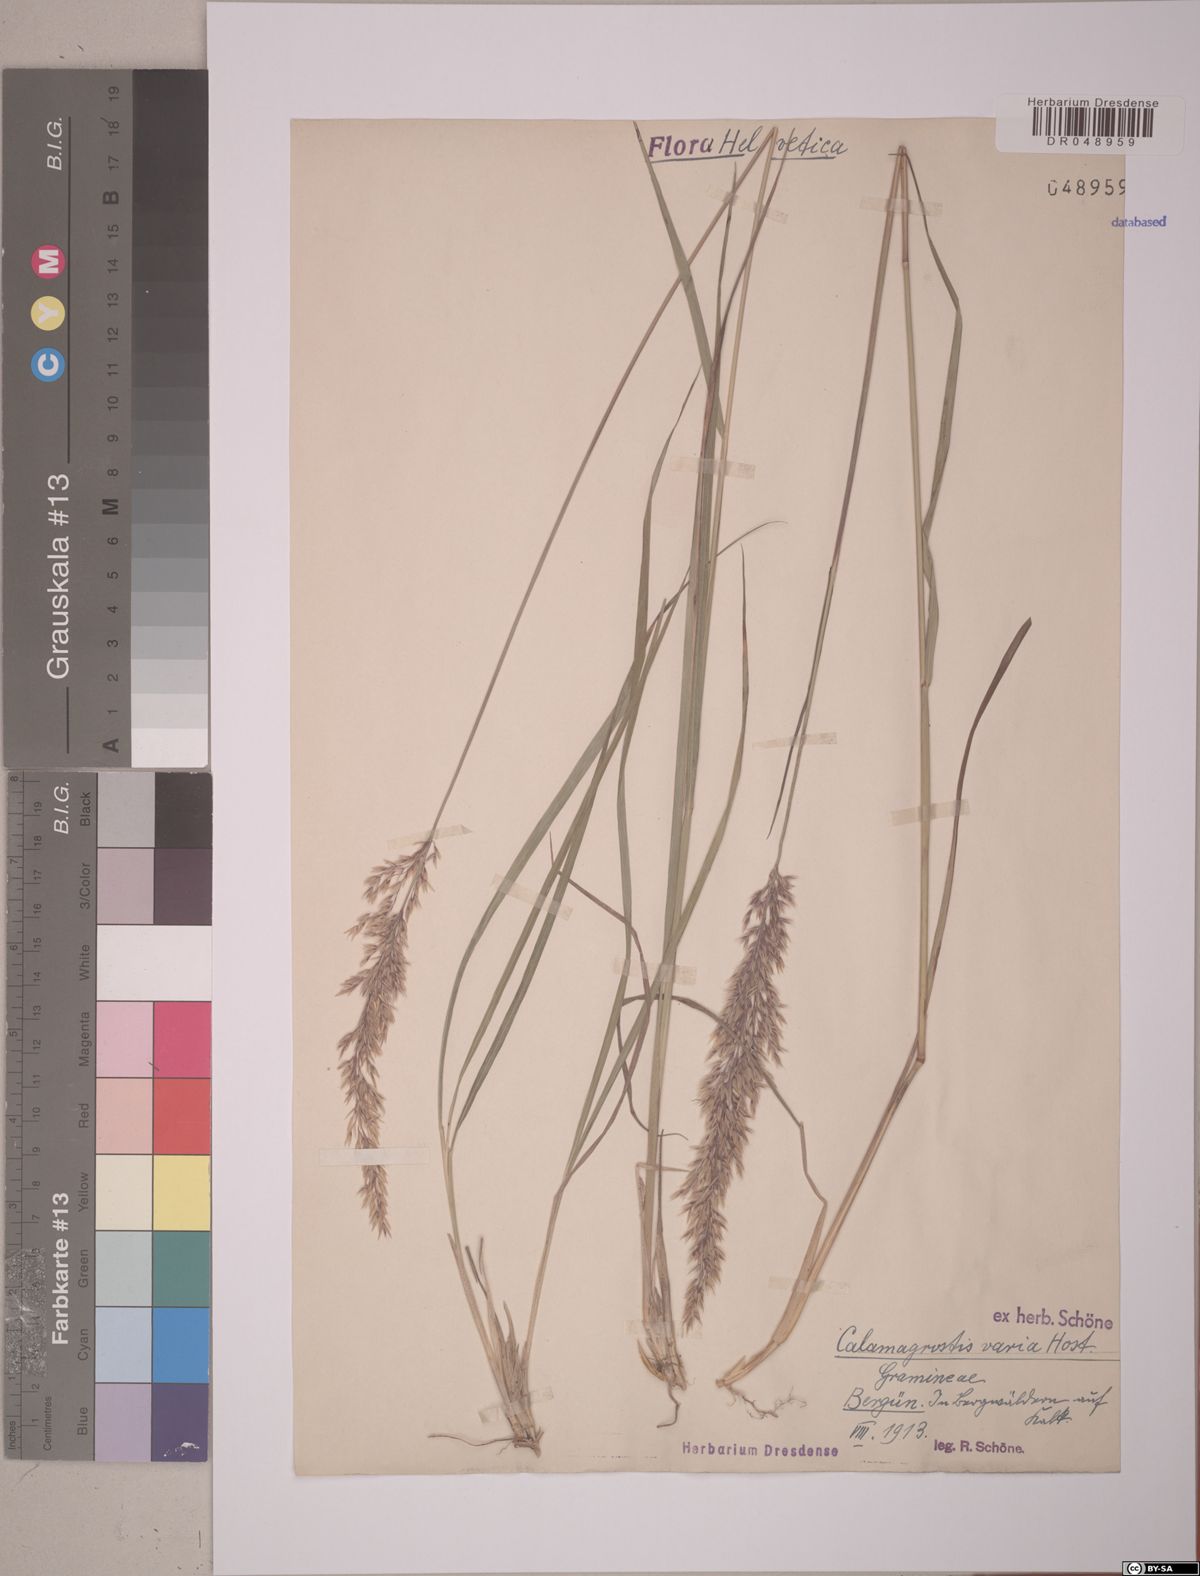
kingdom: Plantae
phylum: Tracheophyta
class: Liliopsida
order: Poales
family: Poaceae
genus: Calamagrostis
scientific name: Calamagrostis varia
